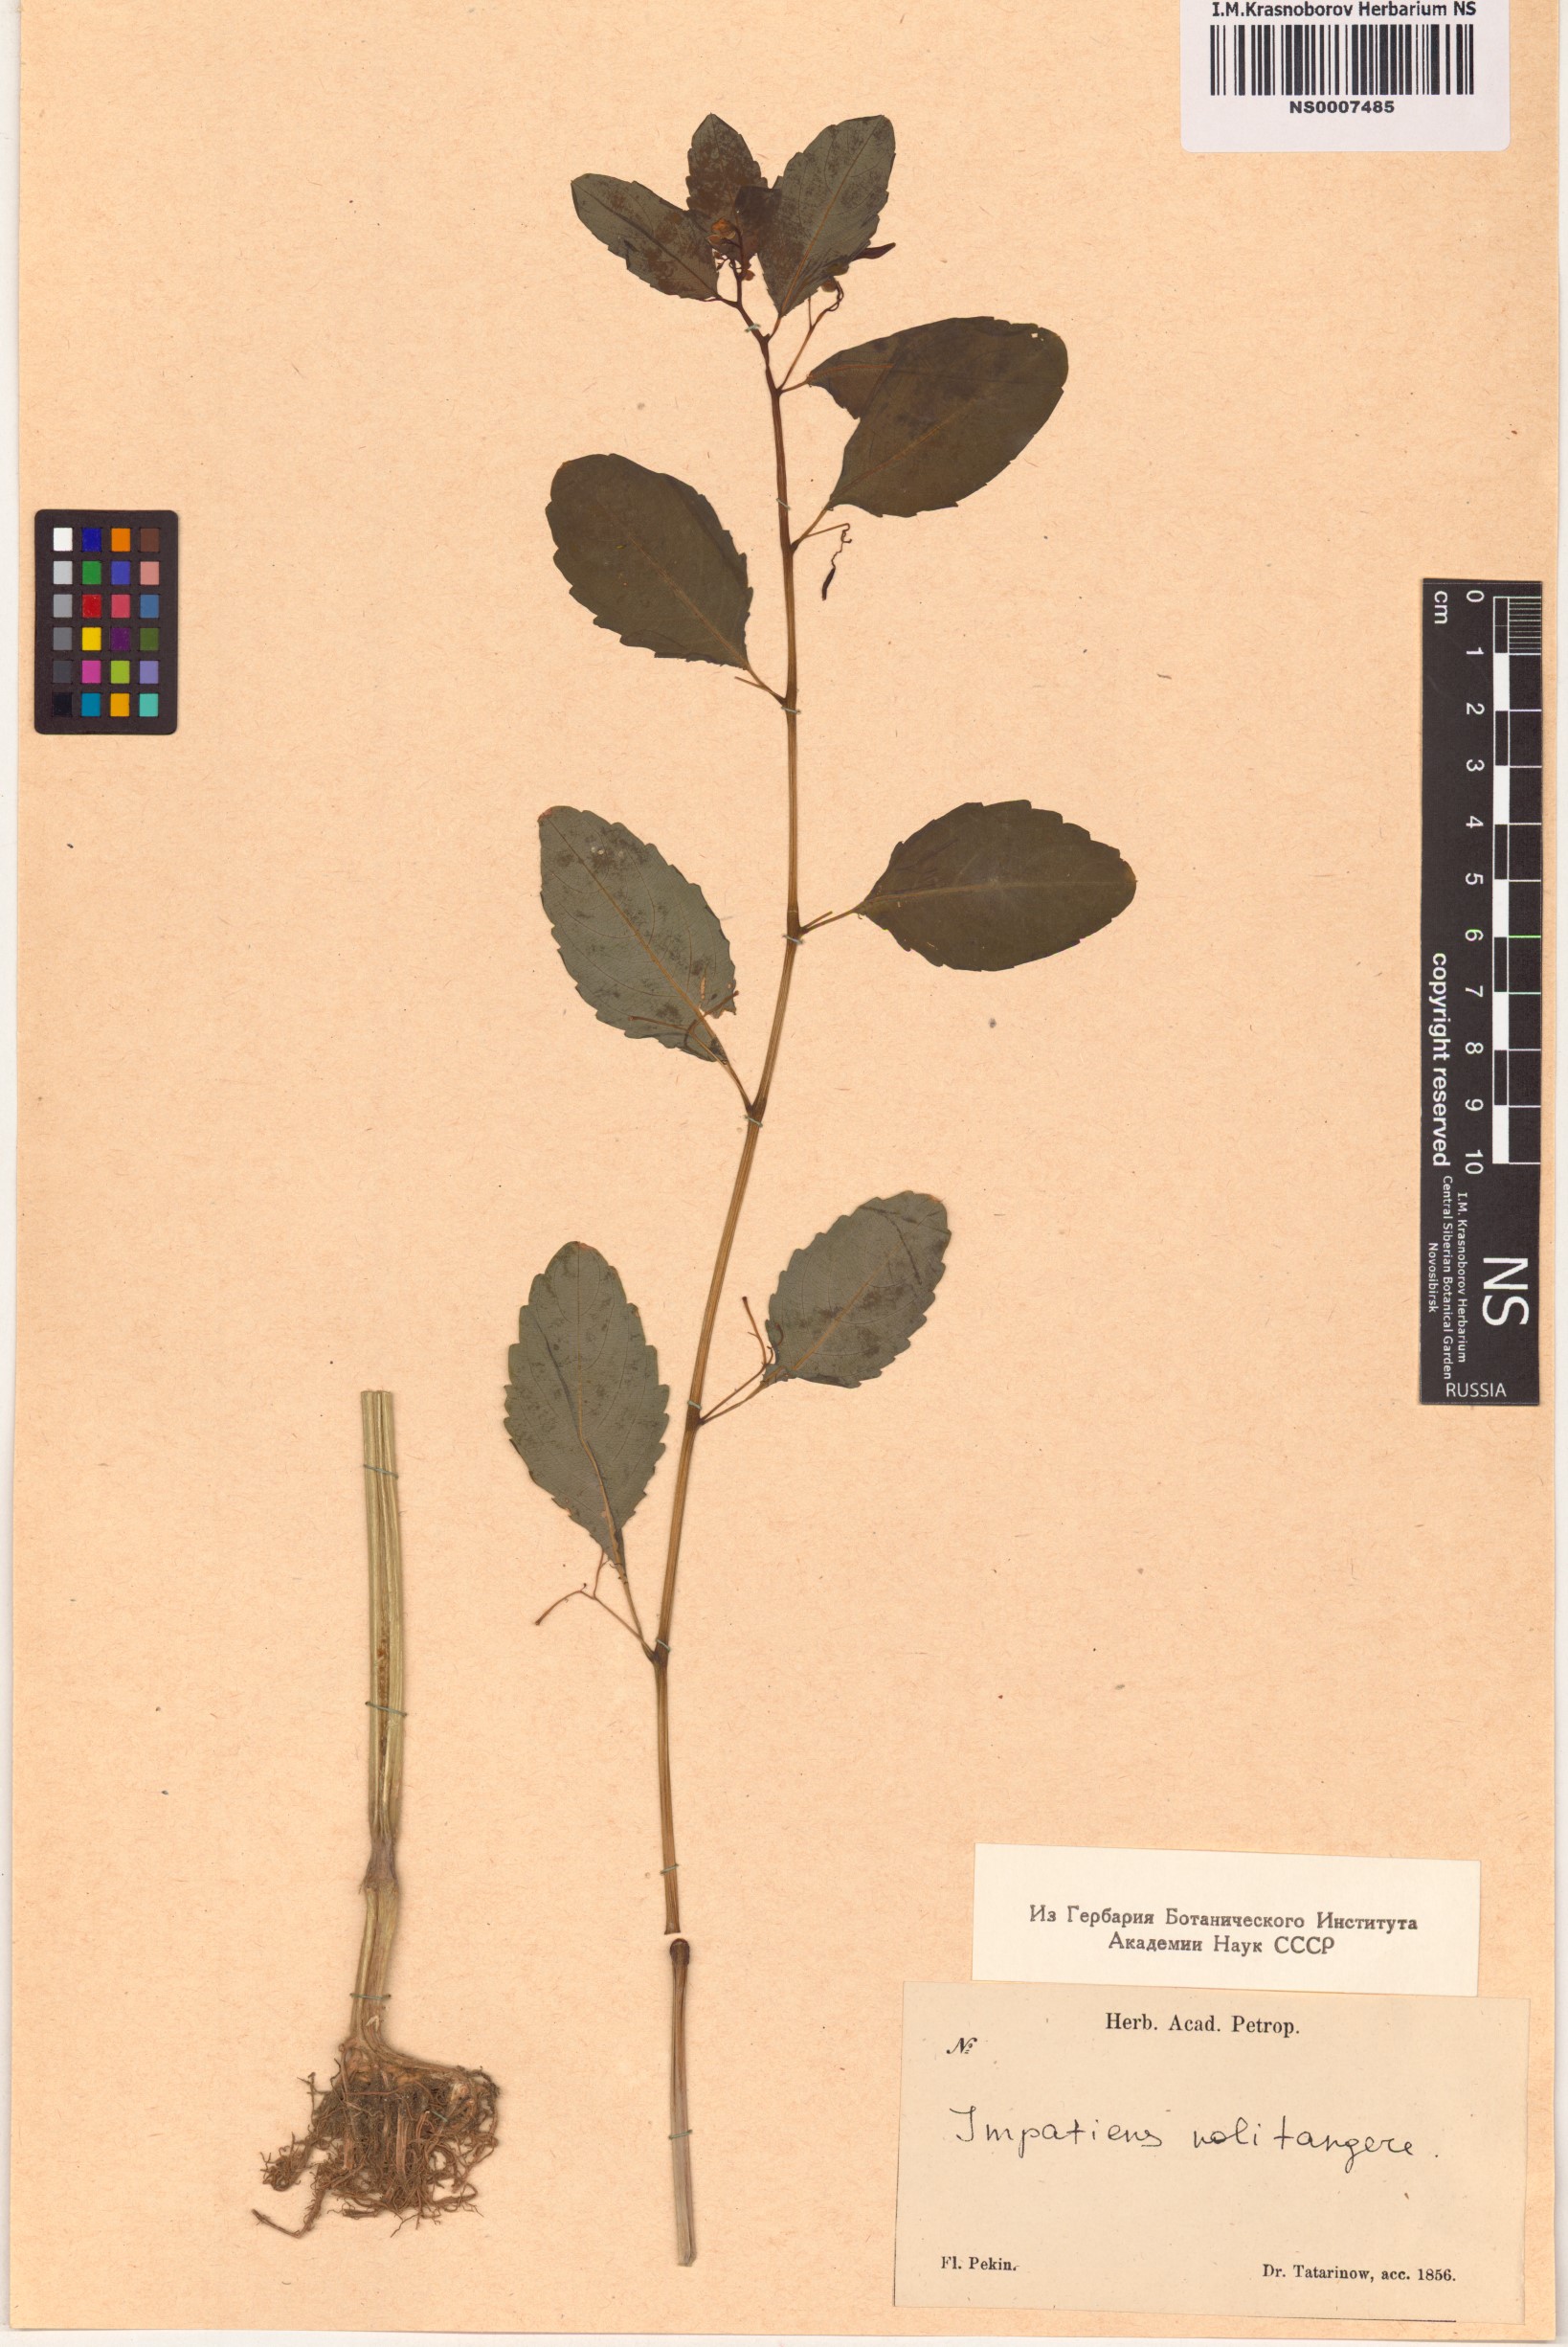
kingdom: Plantae
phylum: Tracheophyta
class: Magnoliopsida
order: Ericales
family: Balsaminaceae
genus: Impatiens
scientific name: Impatiens noli-tangere
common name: Touch-me-not balsam
